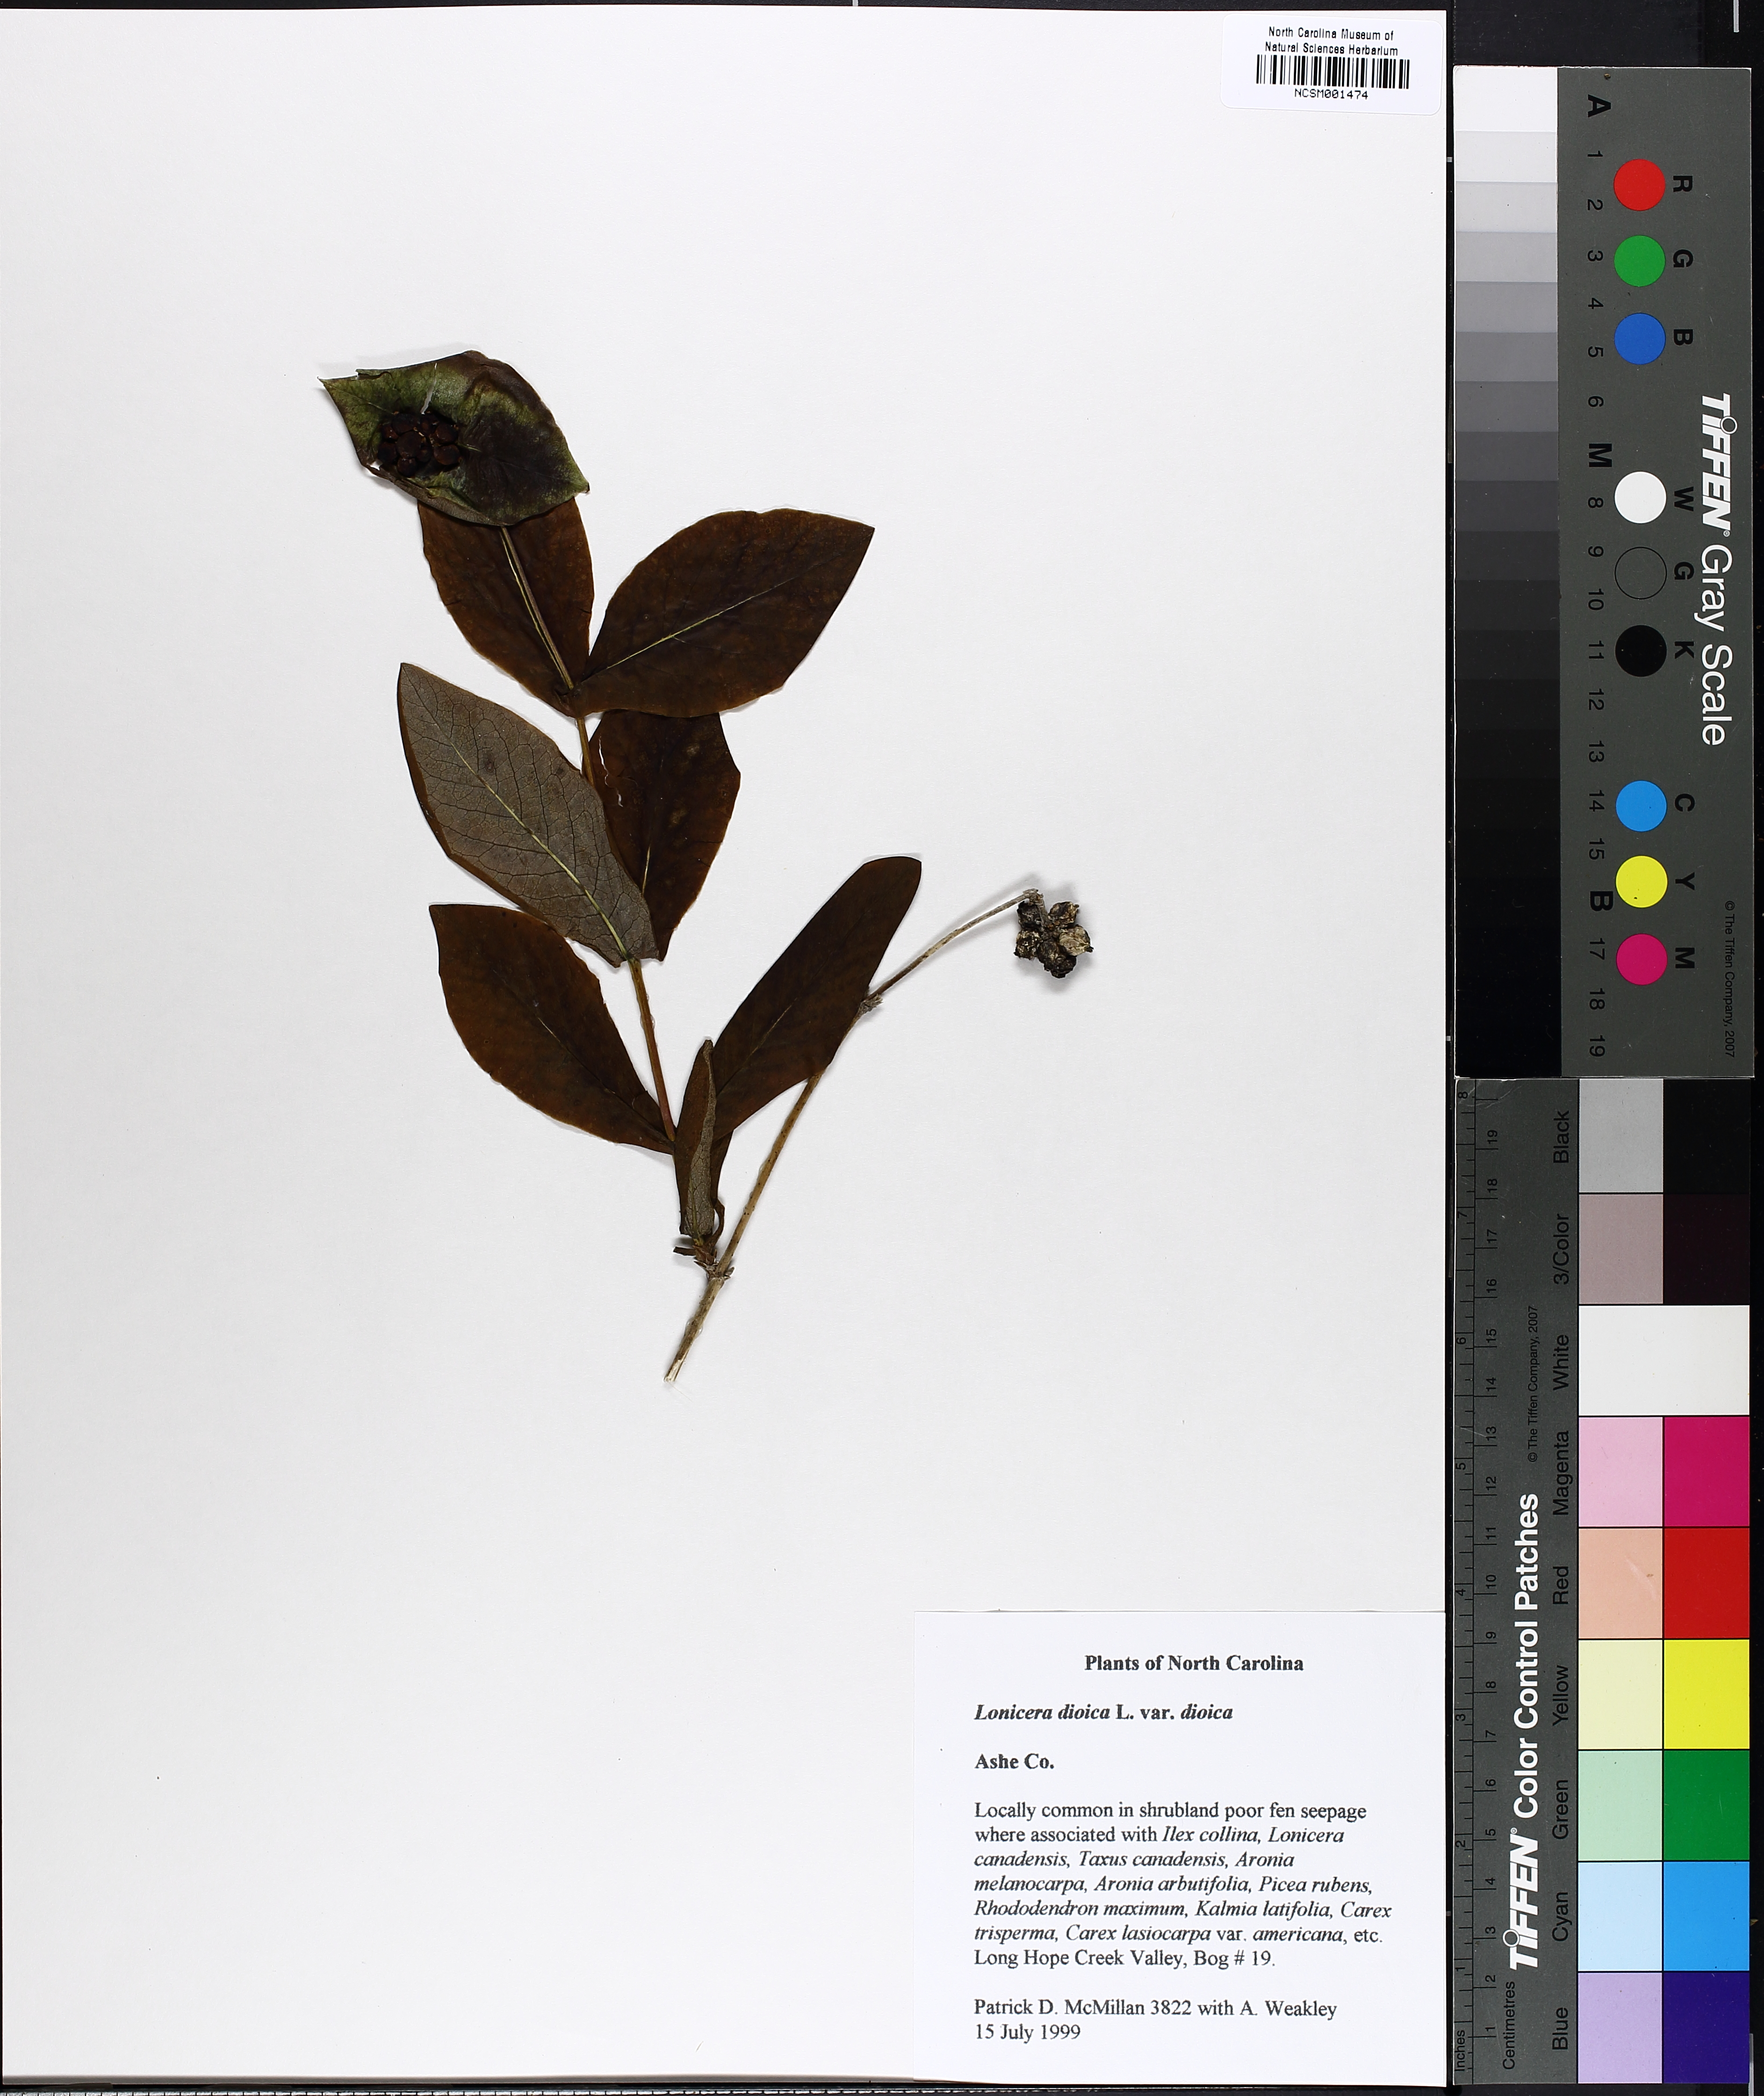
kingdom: Plantae
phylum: Tracheophyta
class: Magnoliopsida
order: Dipsacales
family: Caprifoliaceae
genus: Lonicera
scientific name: Lonicera dioica
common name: Limber honeysuckle
